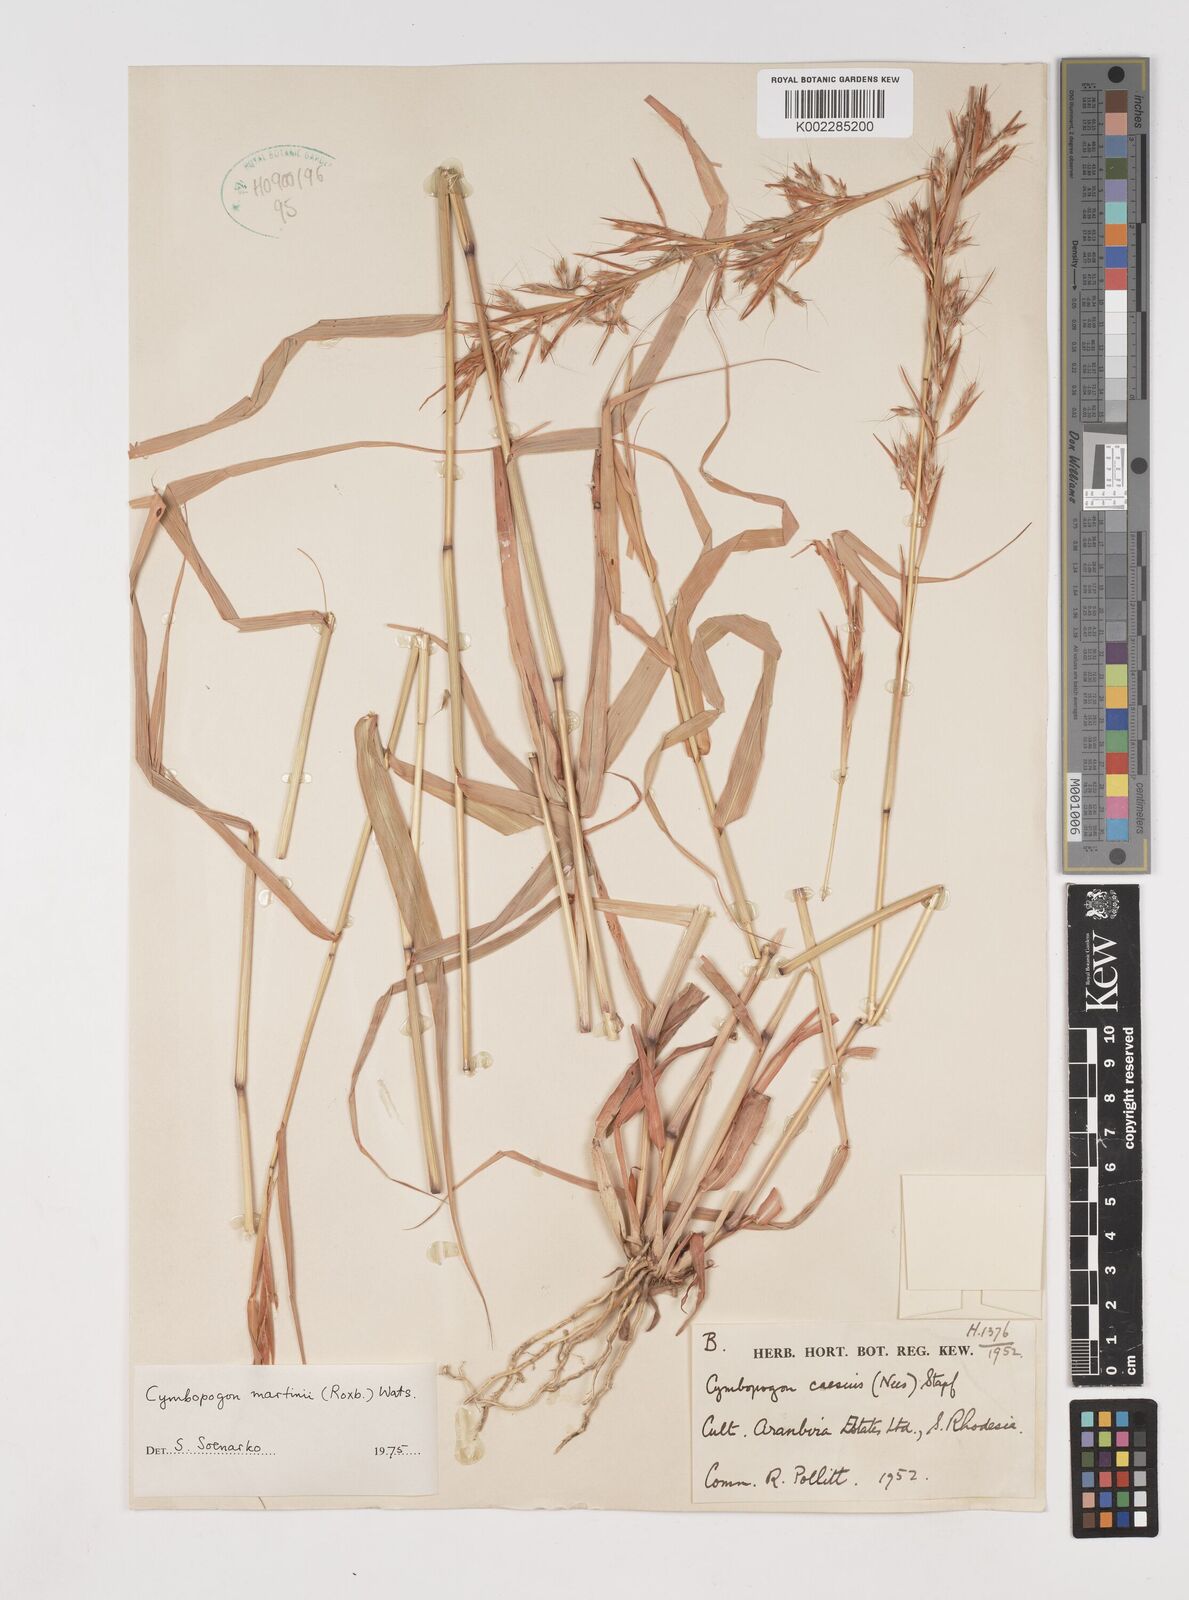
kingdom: Plantae
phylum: Tracheophyta
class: Liliopsida
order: Poales
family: Poaceae
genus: Cymbopogon
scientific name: Cymbopogon martini
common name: Ginger grass
